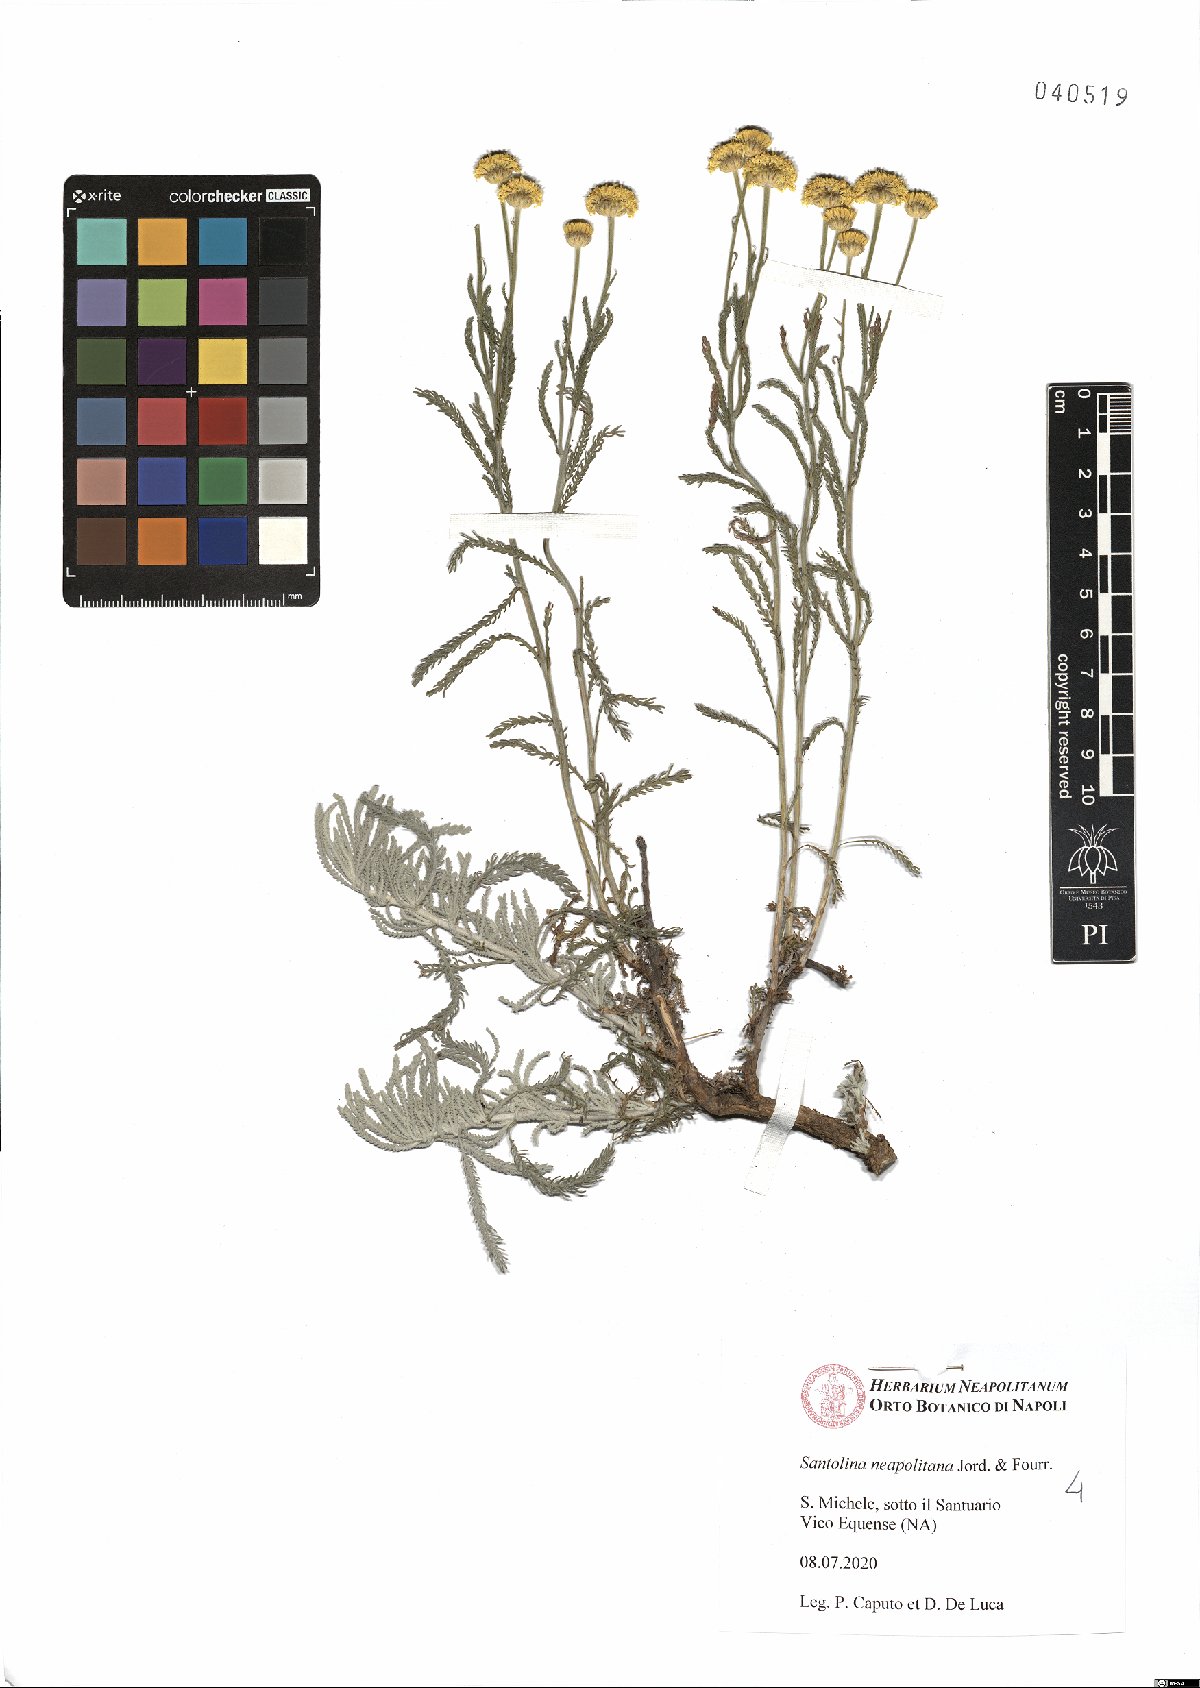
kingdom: Plantae
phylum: Tracheophyta
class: Magnoliopsida
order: Asterales
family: Asteraceae
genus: Santolina
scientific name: Santolina neapolitana
